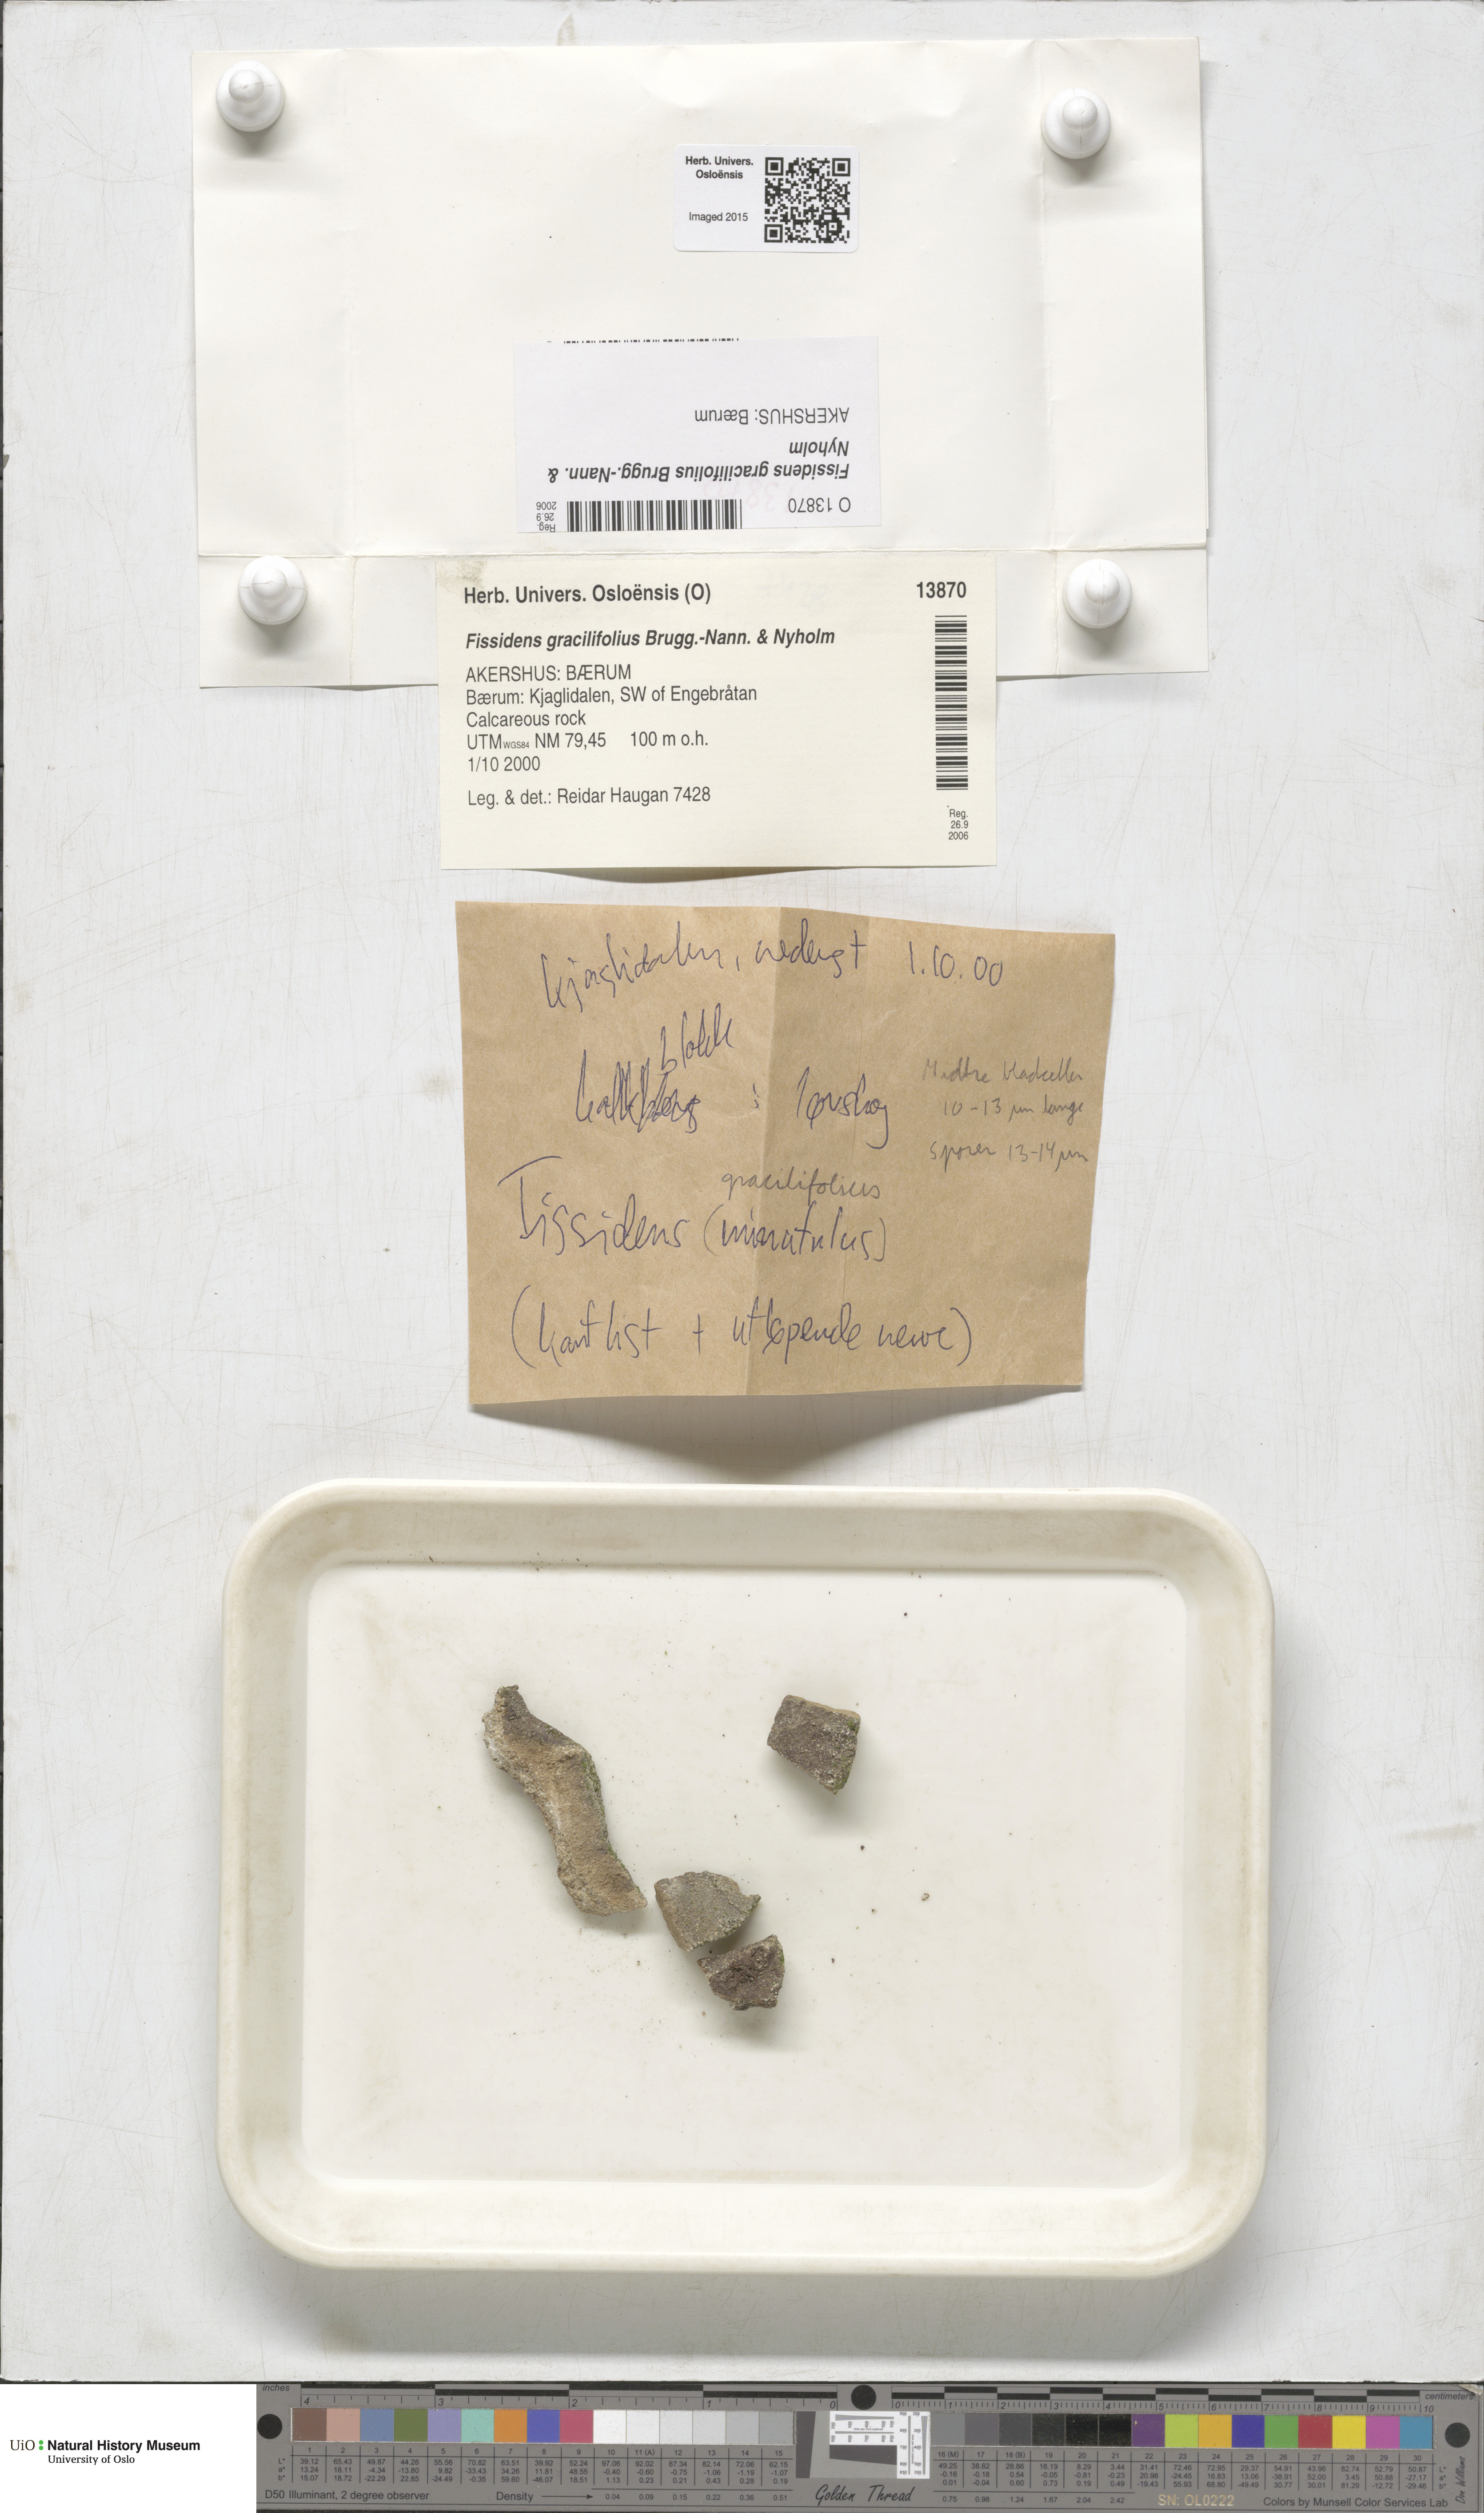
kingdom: Plantae
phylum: Bryophyta
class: Bryopsida
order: Dicranales
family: Fissidentaceae
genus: Fissidens
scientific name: Fissidens gracilifolius
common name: Narrow-leaved pocket-moss
